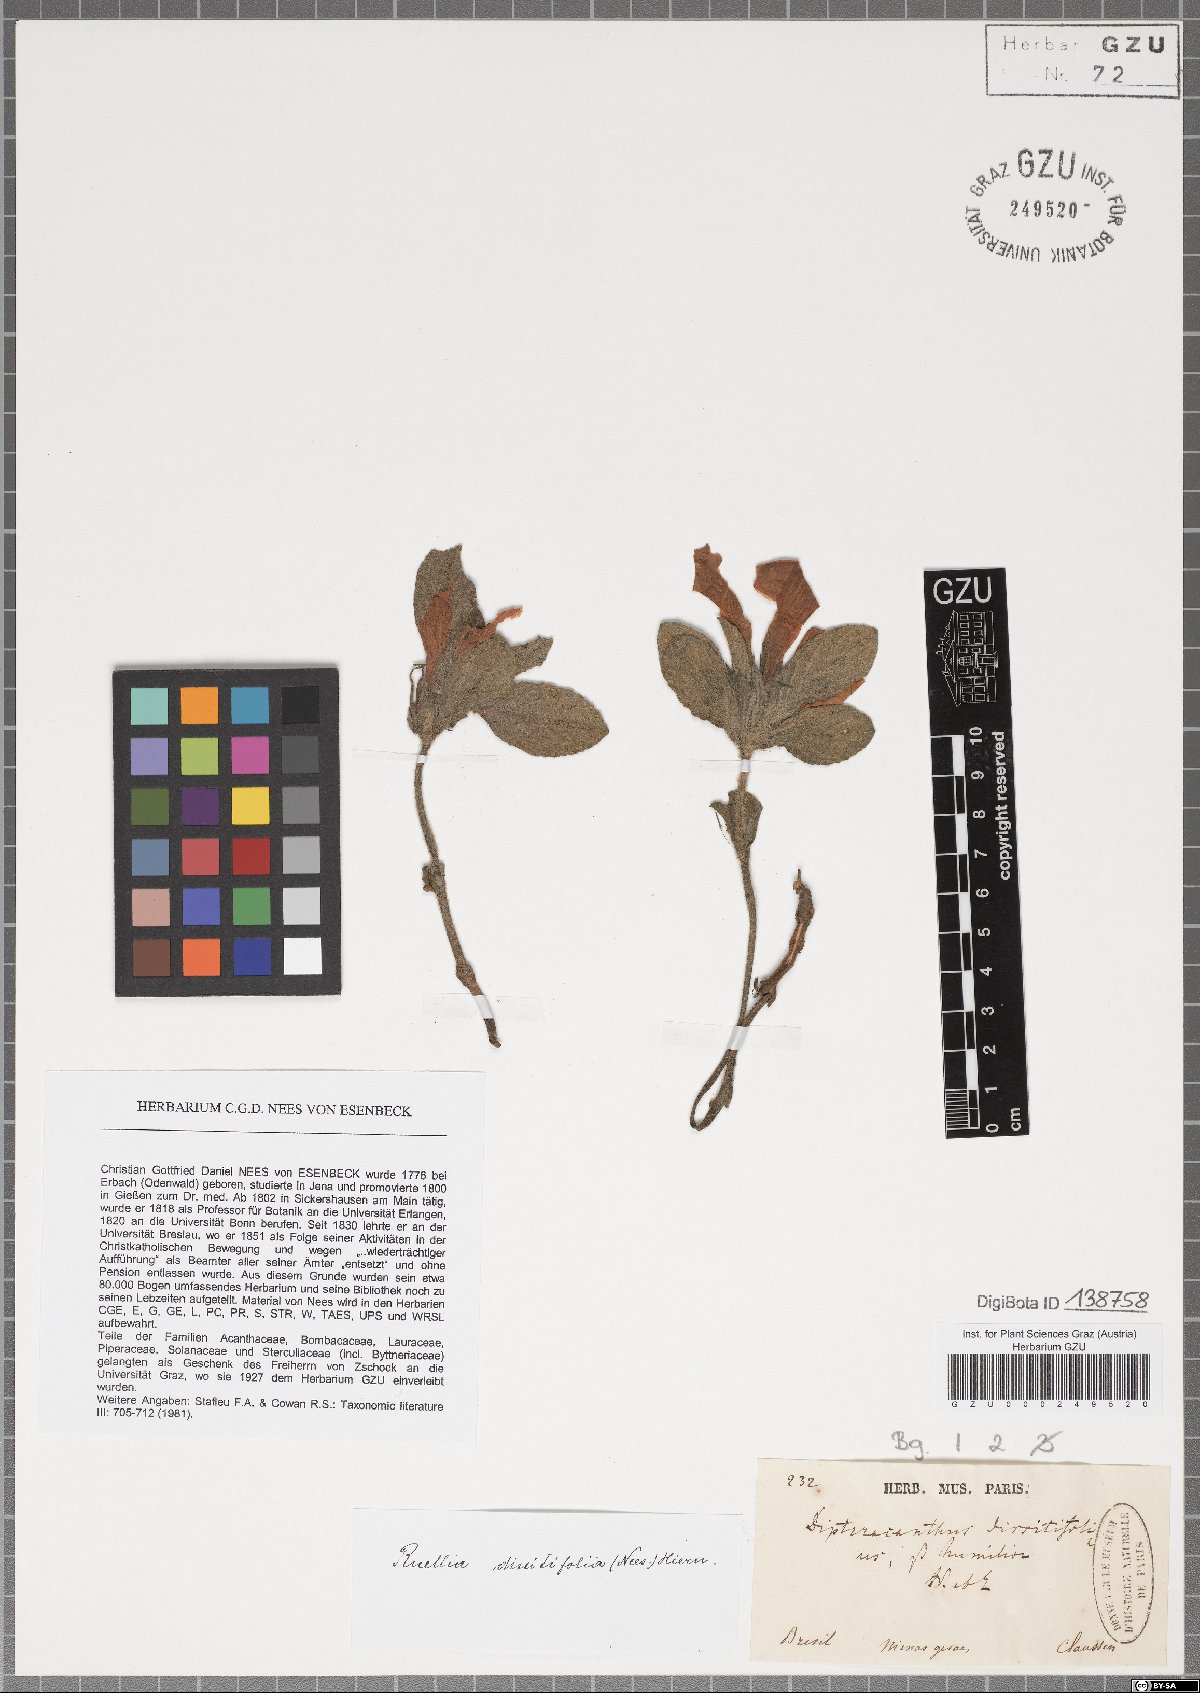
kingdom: Plantae
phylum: Tracheophyta
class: Magnoliopsida
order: Lamiales
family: Acanthaceae
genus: Ruellia
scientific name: Ruellia brevicaulis
